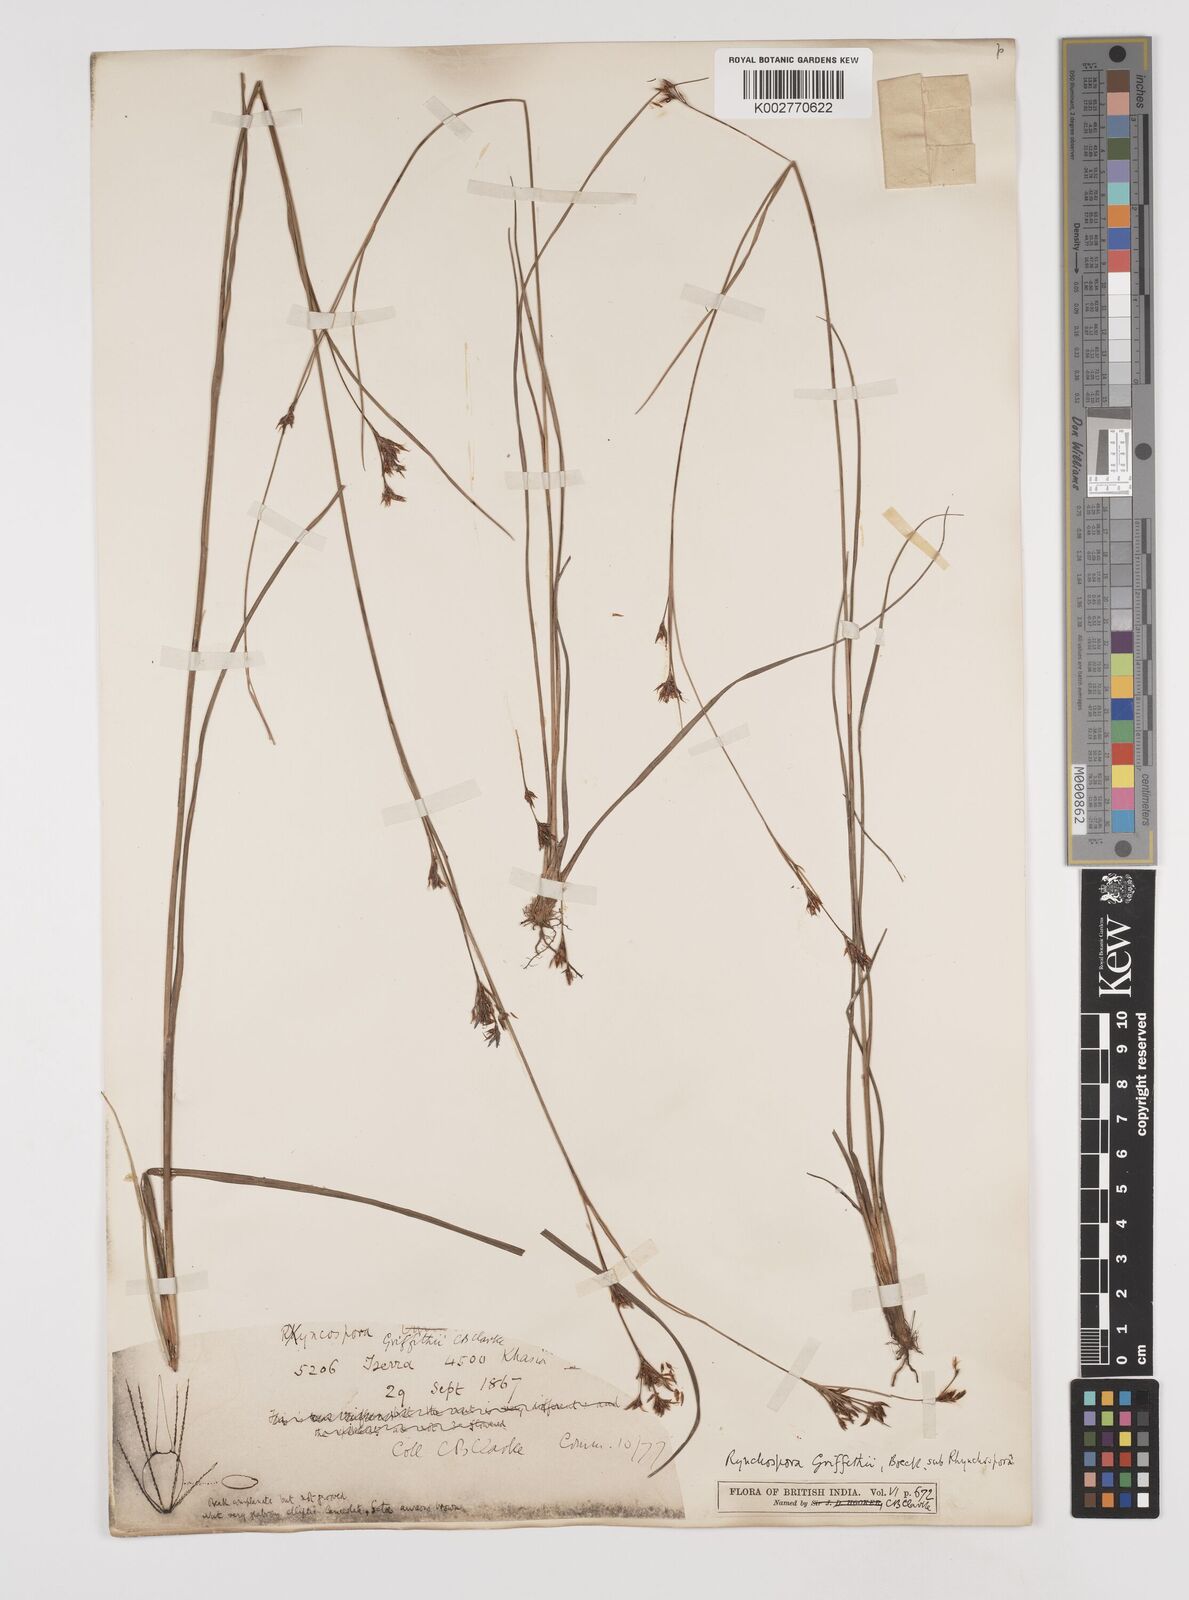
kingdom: Plantae
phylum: Tracheophyta
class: Liliopsida
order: Poales
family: Cyperaceae
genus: Rhynchospora
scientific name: Rhynchospora brownii
